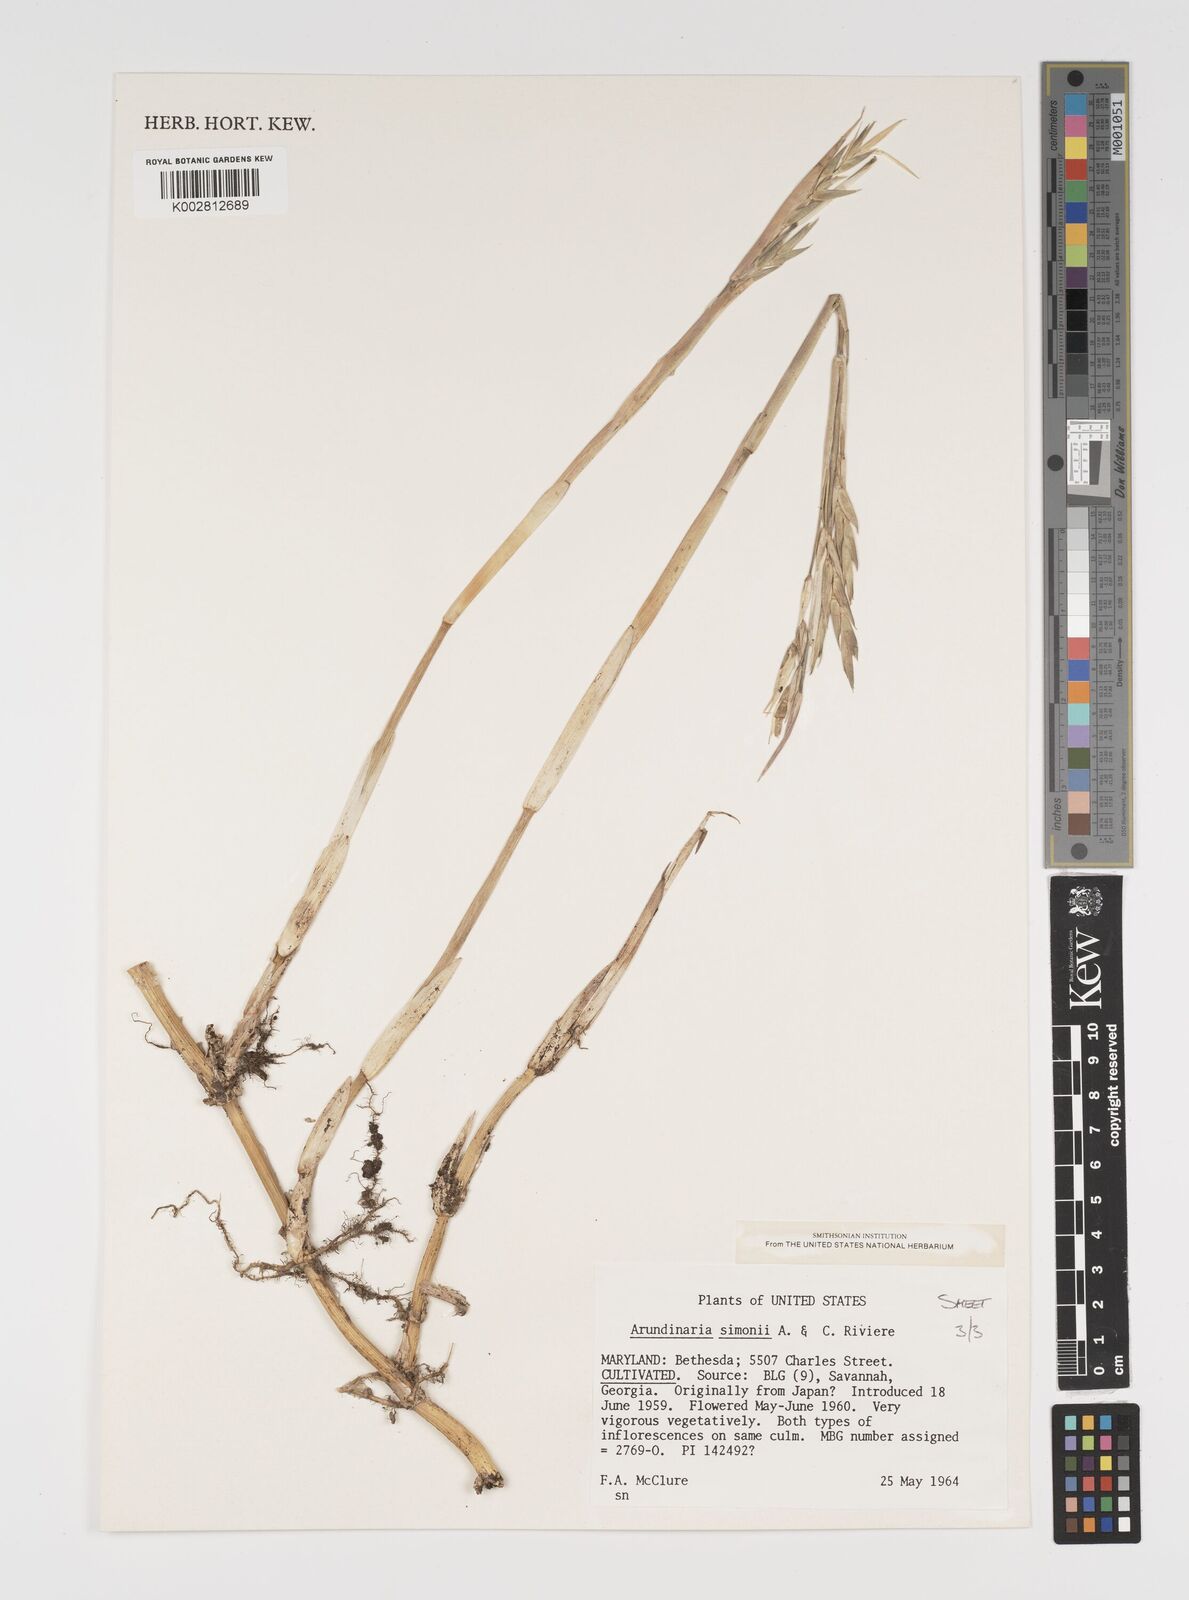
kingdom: Plantae
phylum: Tracheophyta
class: Liliopsida
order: Poales
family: Poaceae
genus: Arundinaria
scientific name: Arundinaria
